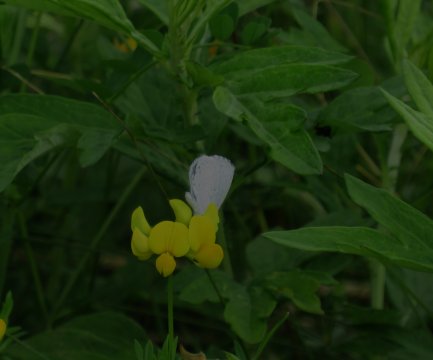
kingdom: Animalia
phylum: Arthropoda
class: Insecta
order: Lepidoptera
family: Lycaenidae
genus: Cyaniris
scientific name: Cyaniris neglecta
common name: Summer Azure
